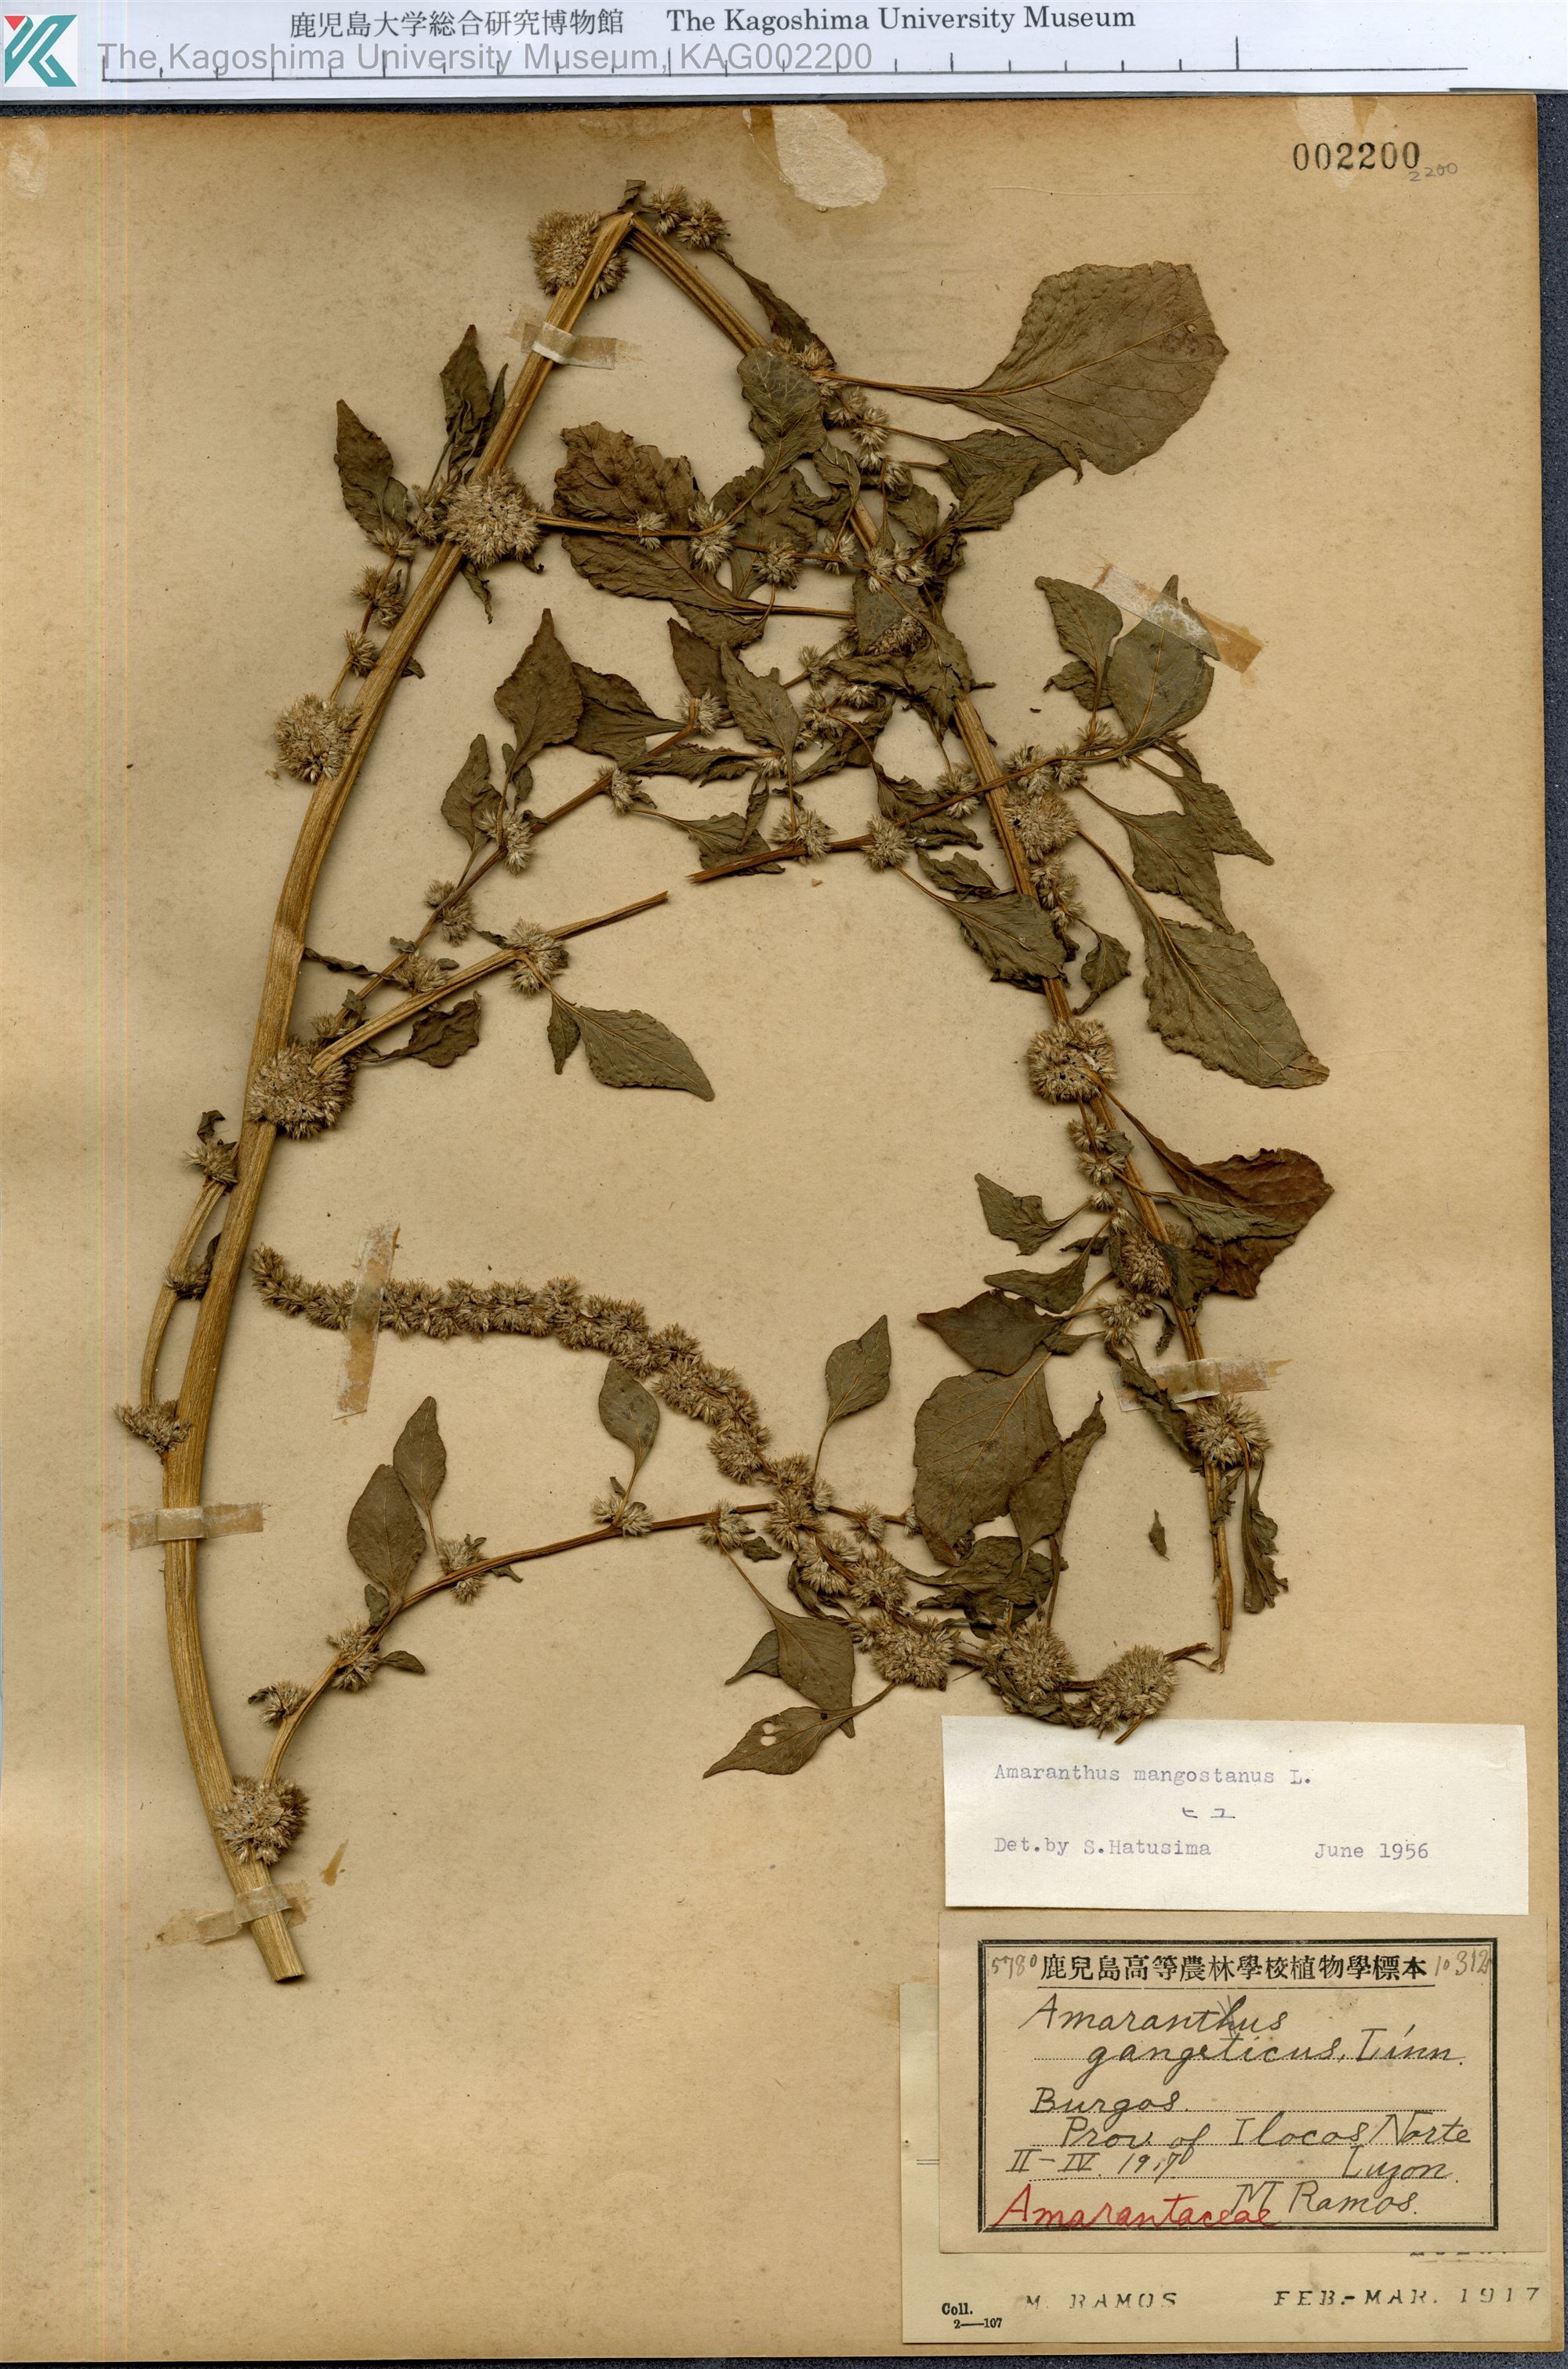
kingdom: Plantae
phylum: Tracheophyta
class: Magnoliopsida
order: Caryophyllales
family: Amaranthaceae
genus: Amaranthus
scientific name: Amaranthus tricolor
